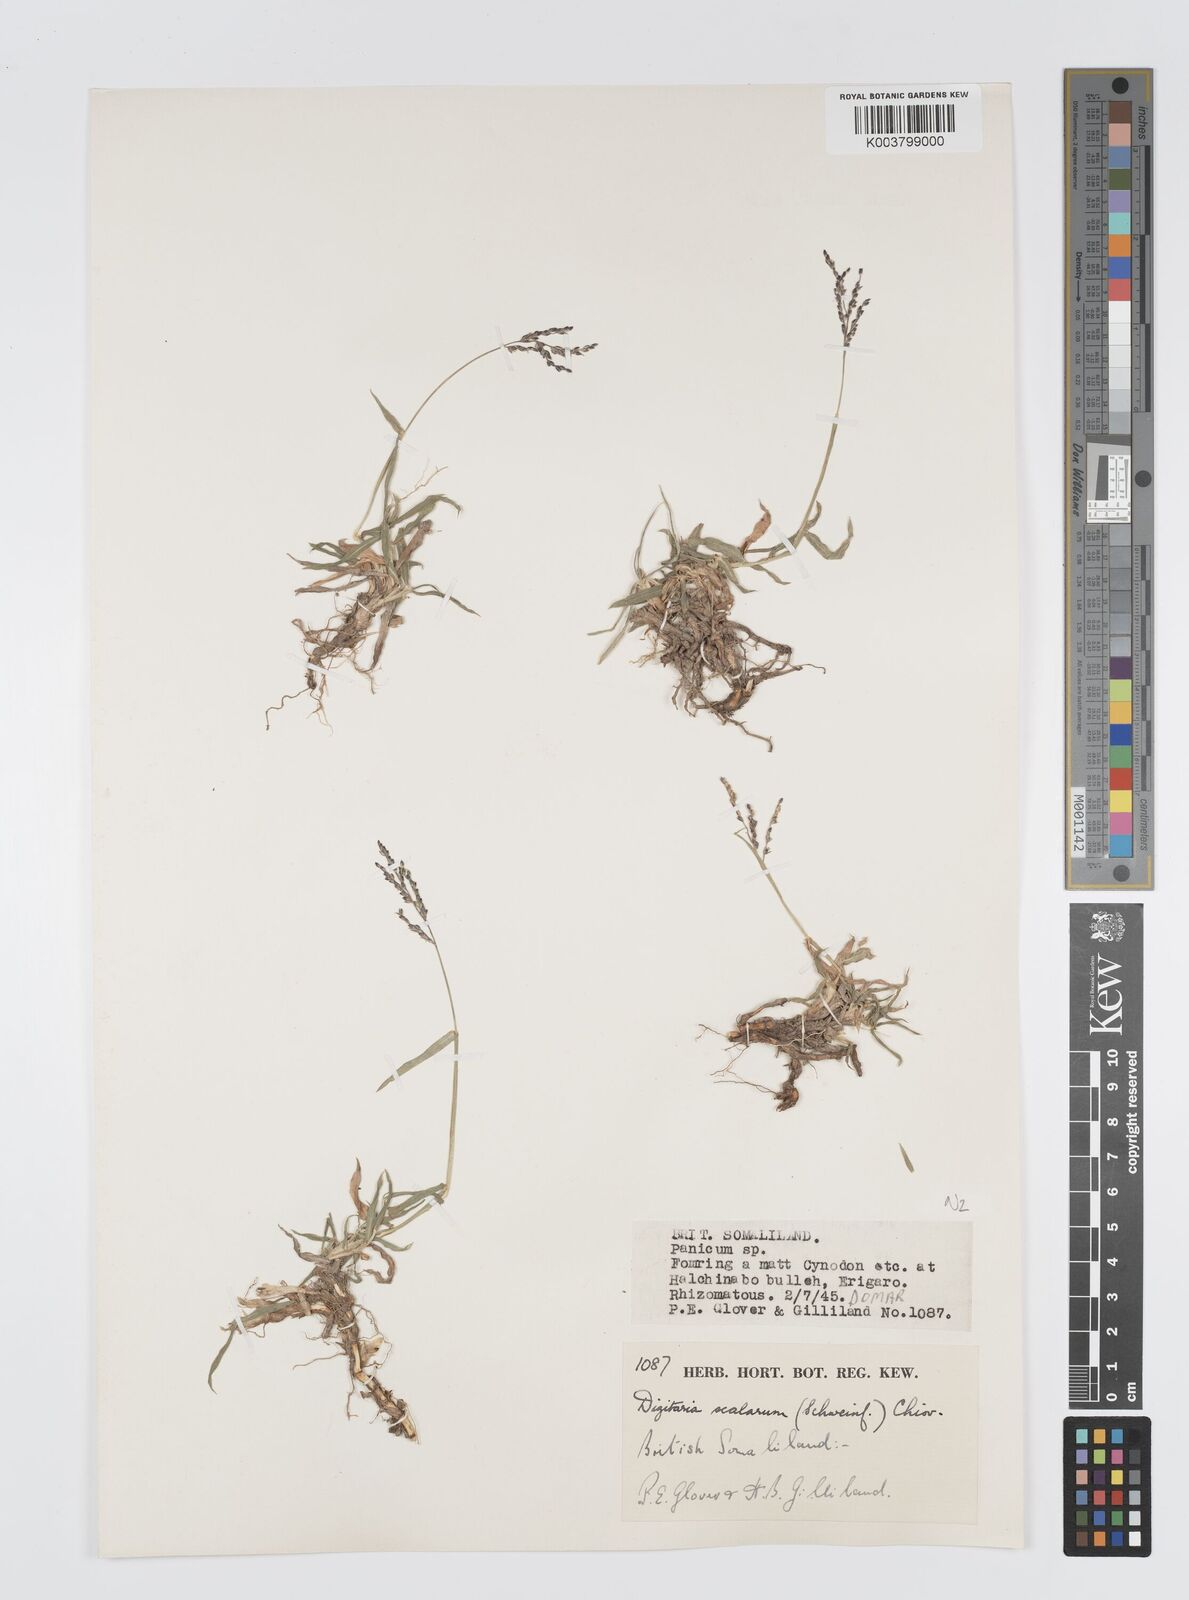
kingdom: Plantae
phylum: Tracheophyta
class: Liliopsida
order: Poales
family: Poaceae
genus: Digitaria
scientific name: Digitaria abyssinica
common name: African couchgrass
